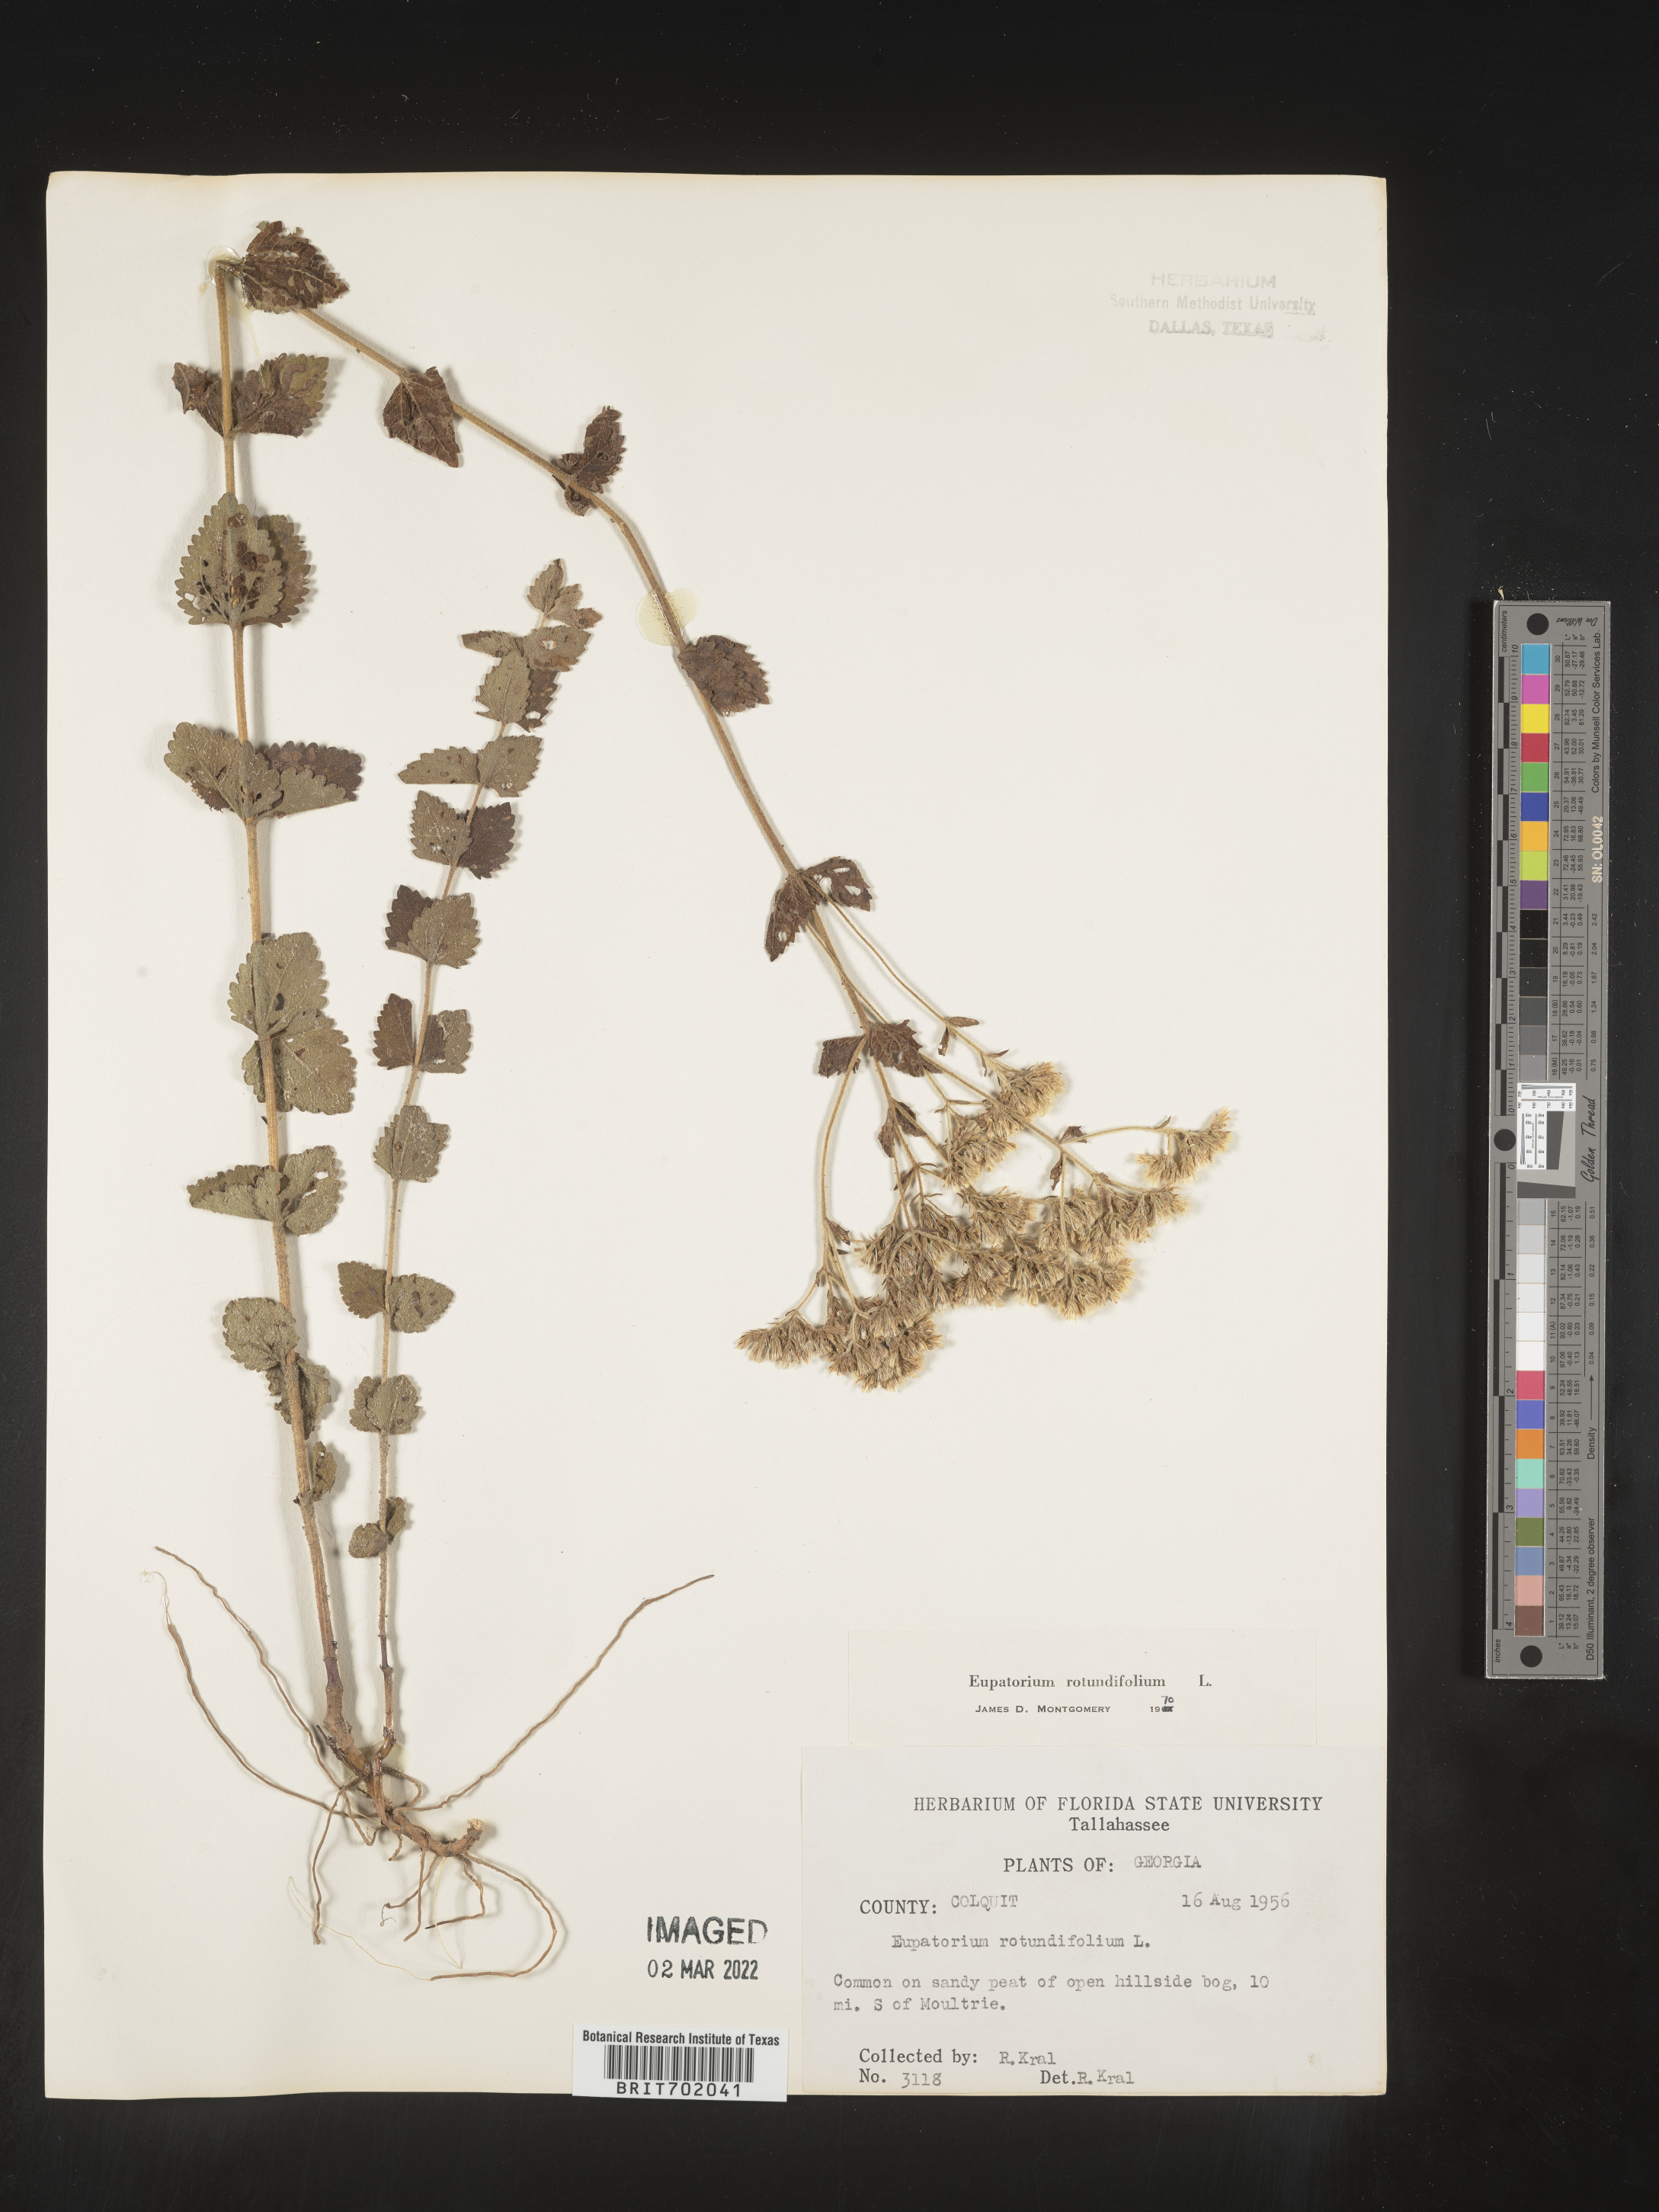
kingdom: Plantae
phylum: Tracheophyta
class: Magnoliopsida
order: Asterales
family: Asteraceae
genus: Eupatorium
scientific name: Eupatorium rotundifolium
